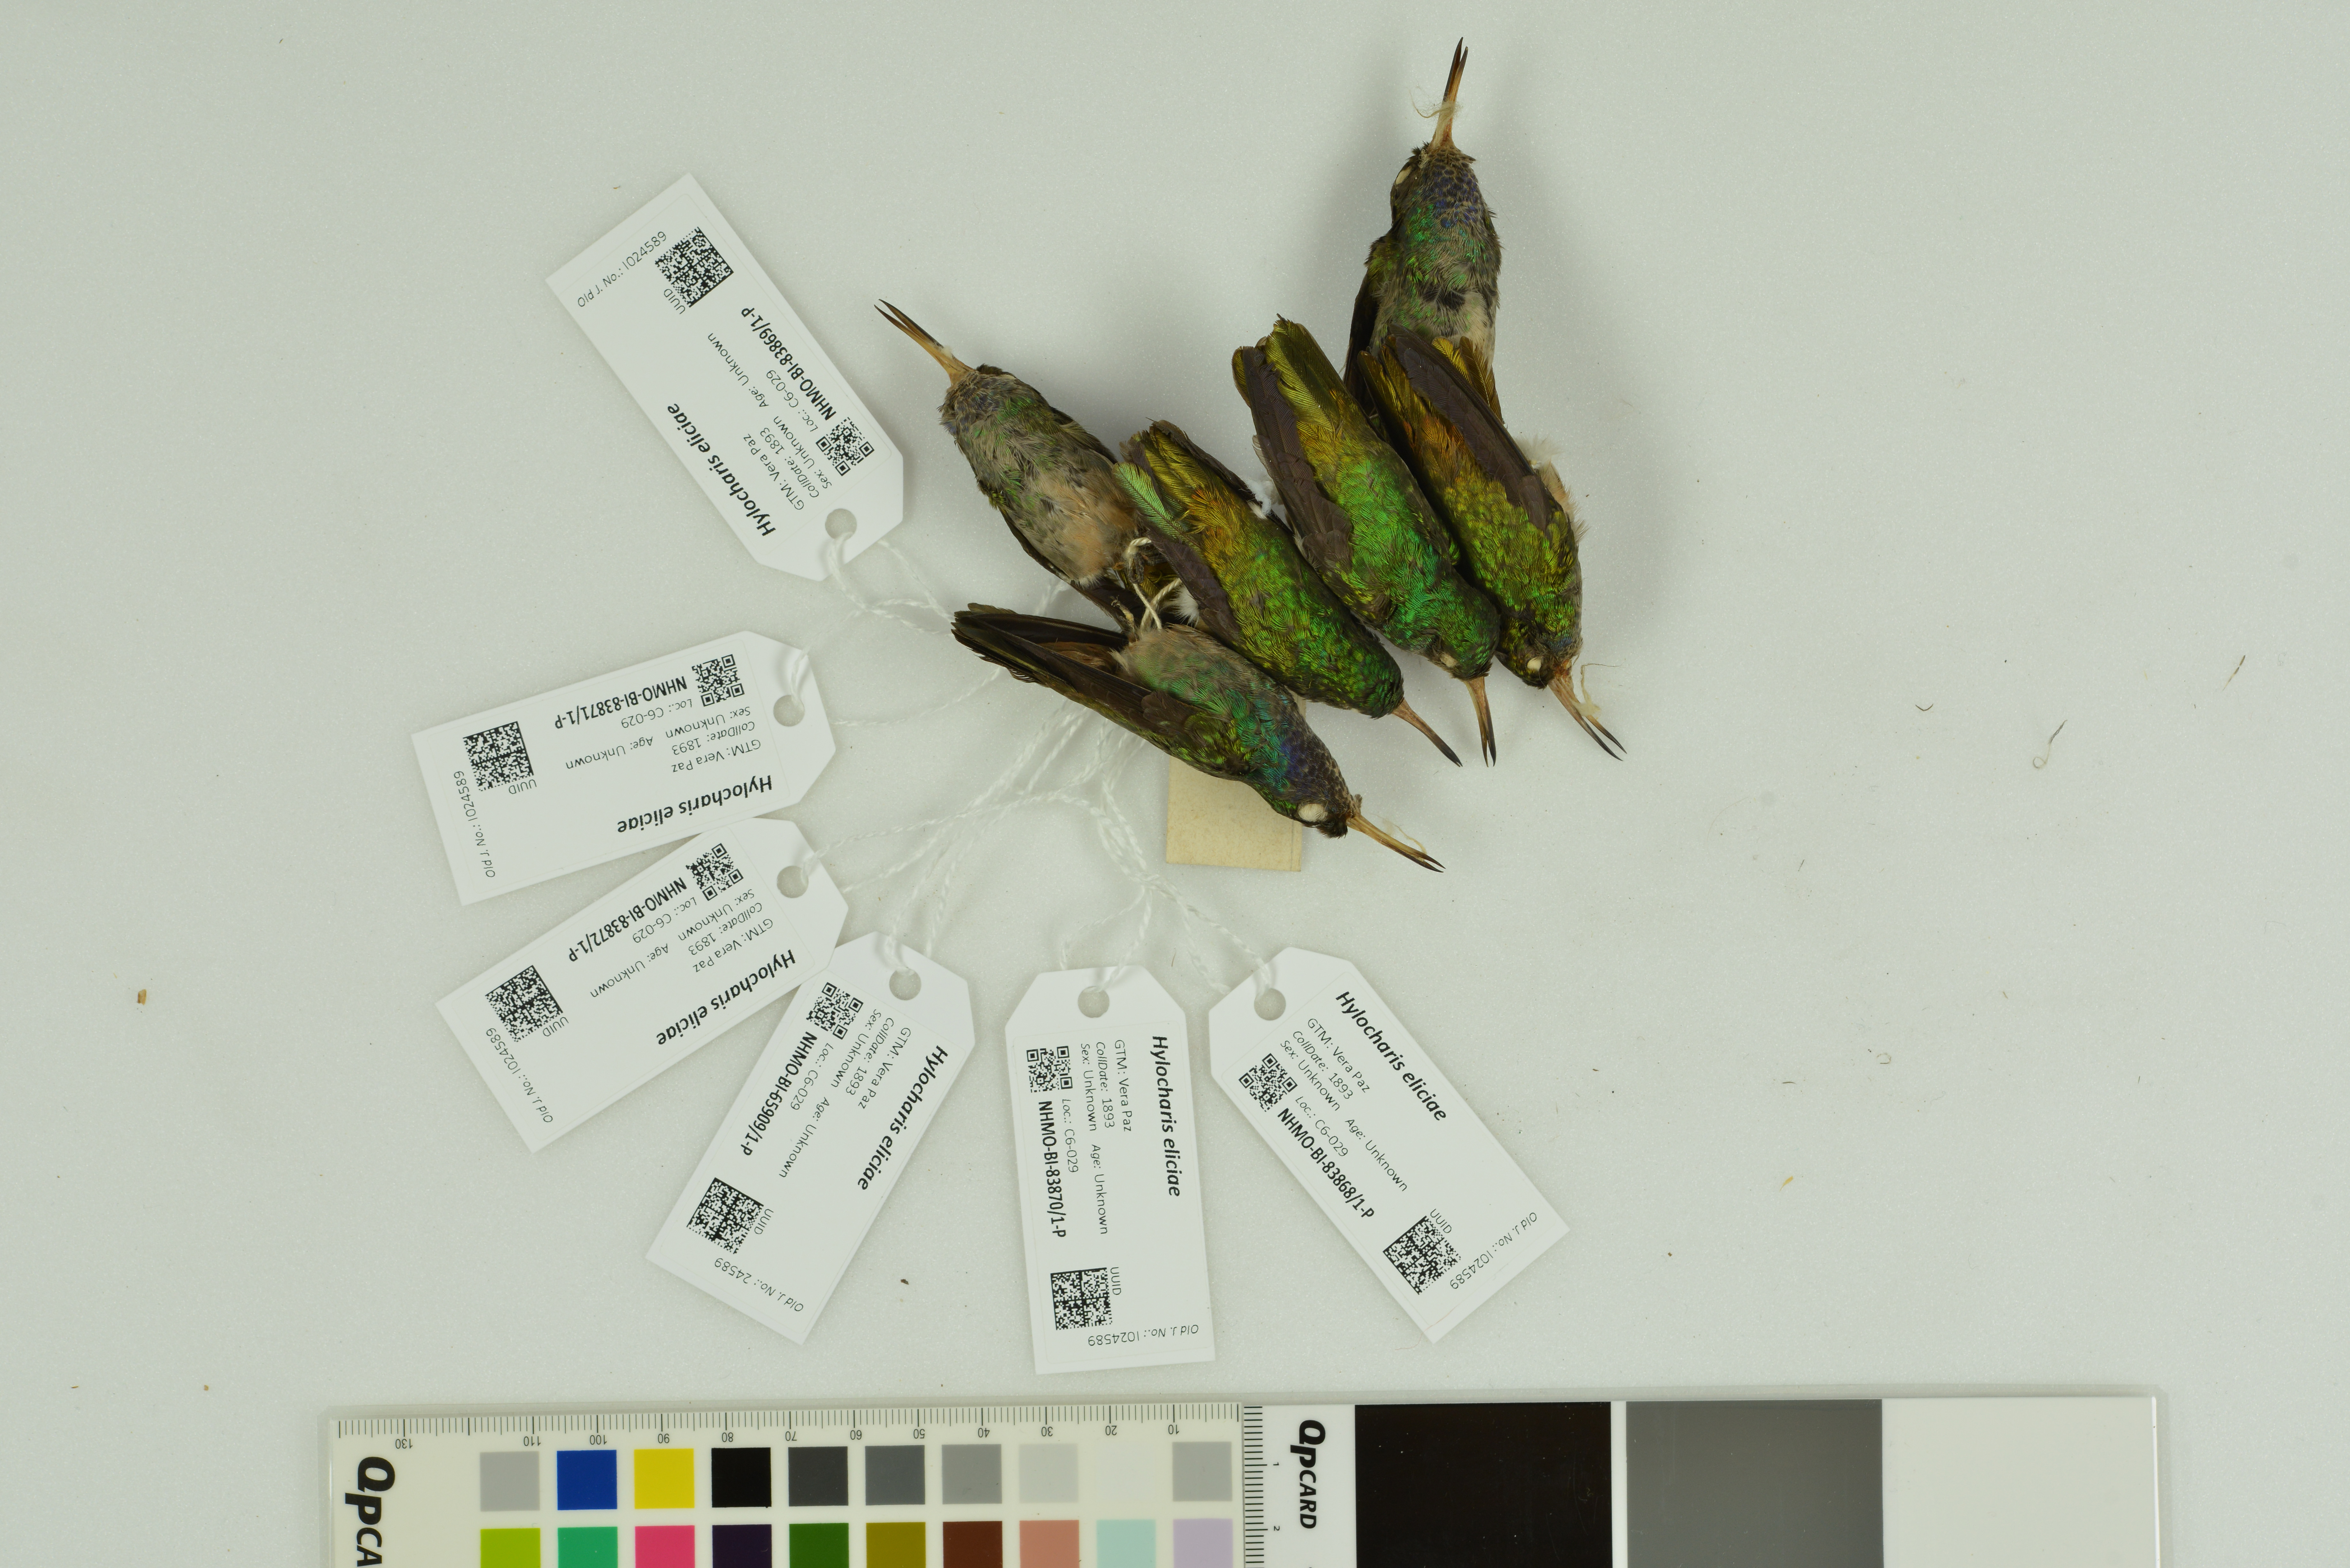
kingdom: Animalia
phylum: Chordata
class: Aves
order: Apodiformes
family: Trochilidae
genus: Chlorestes
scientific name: Chlorestes eliciae
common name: Blue-throated sapphire
